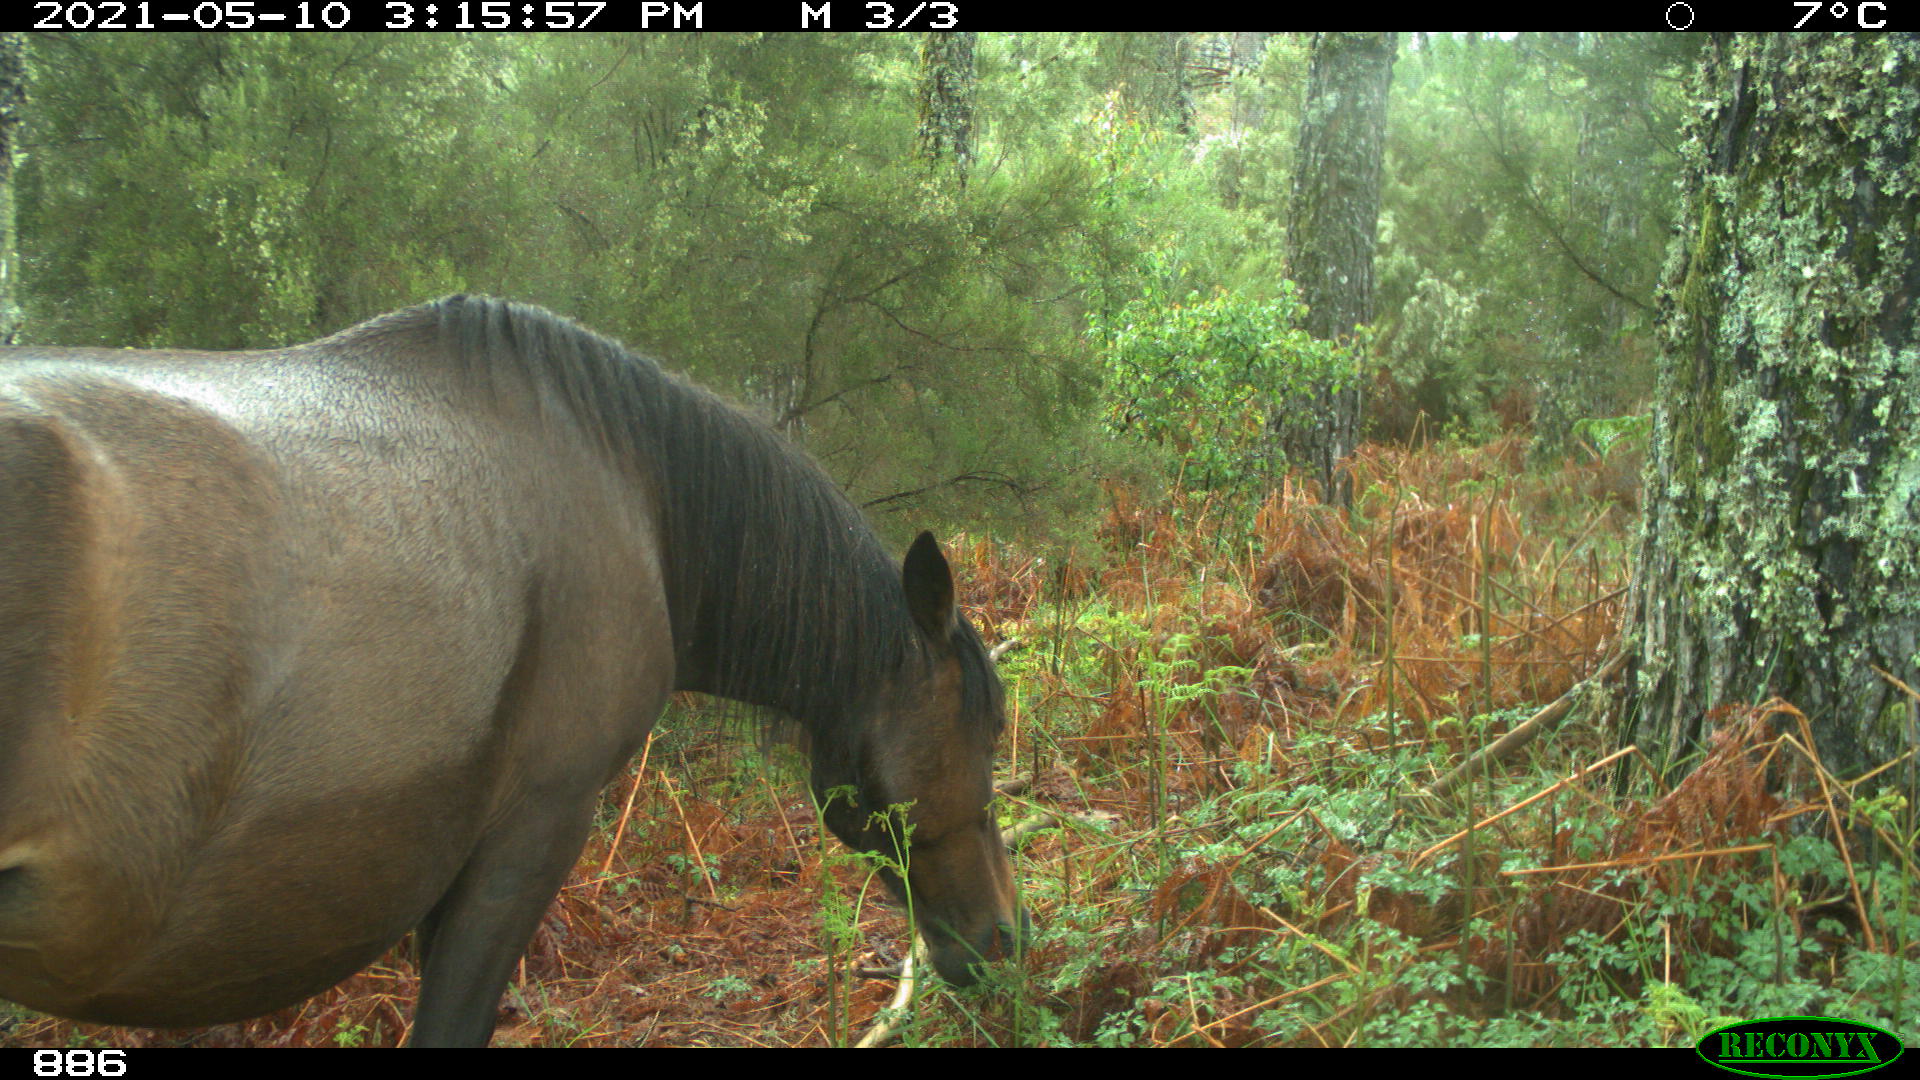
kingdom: Animalia
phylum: Chordata
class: Mammalia
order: Perissodactyla
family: Equidae
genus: Equus
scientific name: Equus caballus
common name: Horse
